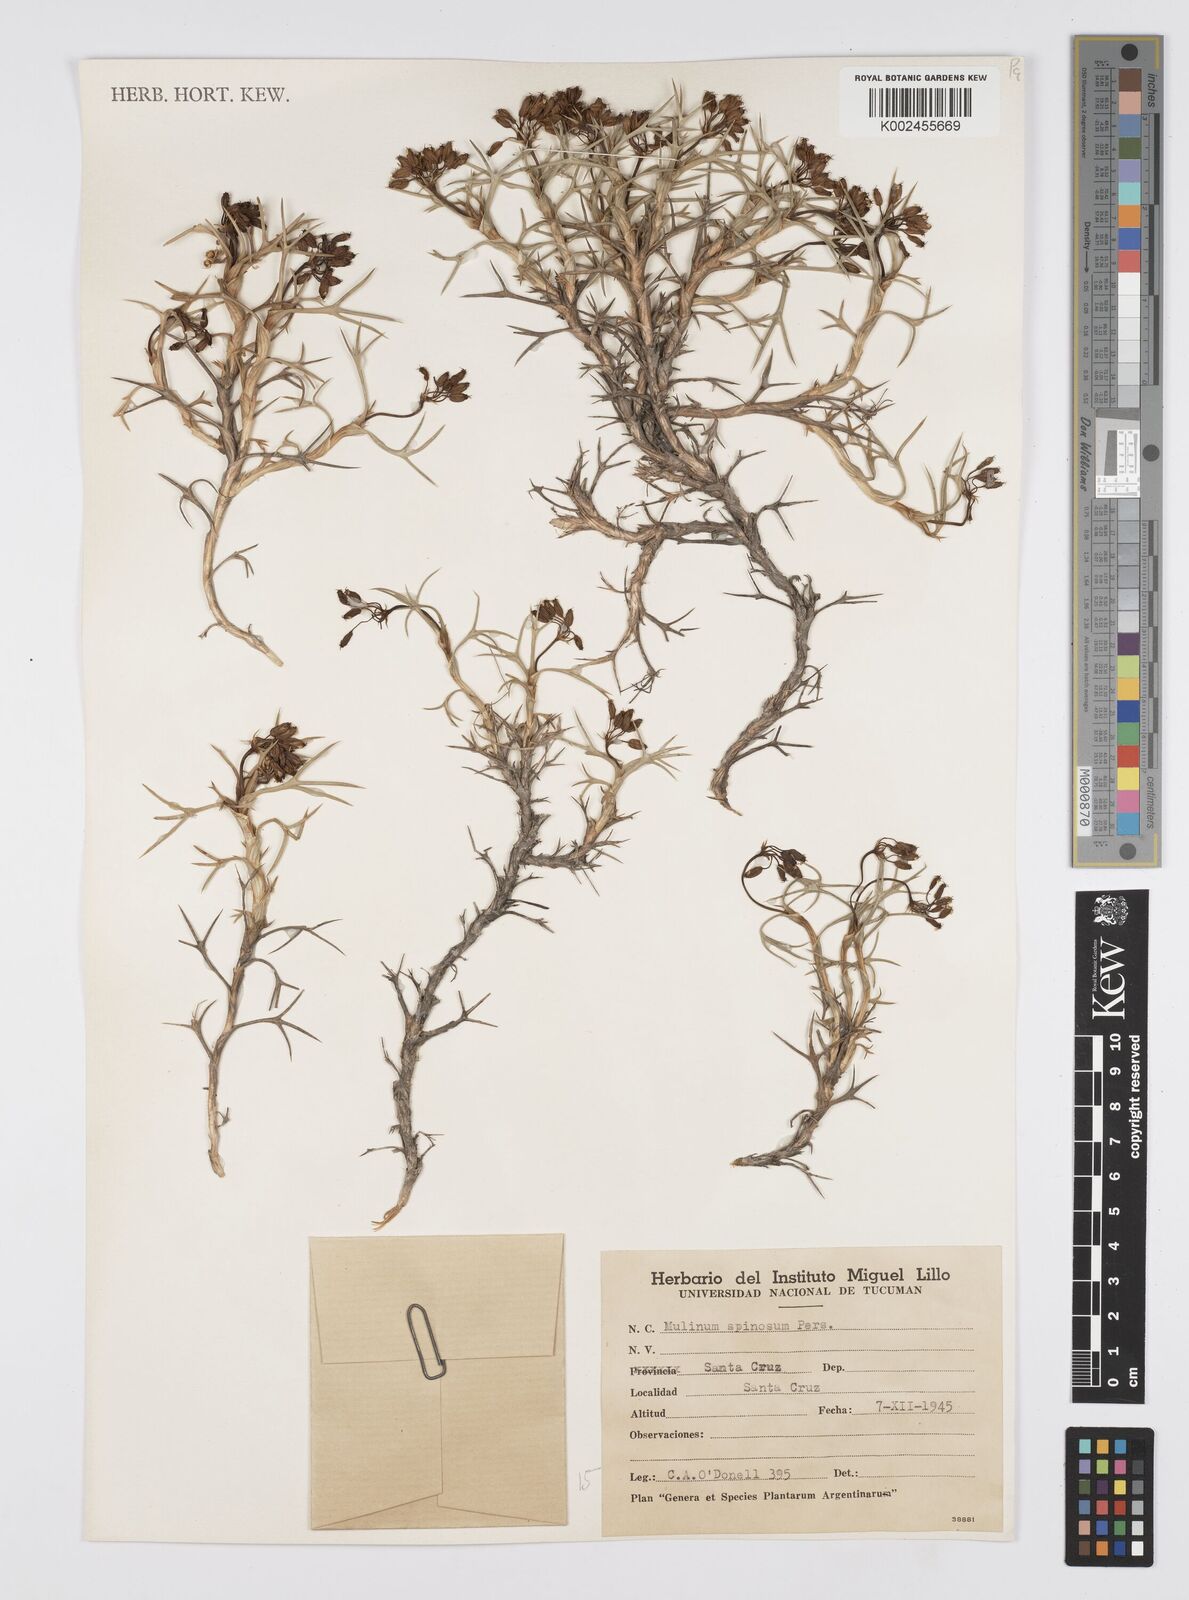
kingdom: Plantae
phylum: Tracheophyta
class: Magnoliopsida
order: Apiales
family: Apiaceae
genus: Azorella
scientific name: Azorella prolifera
